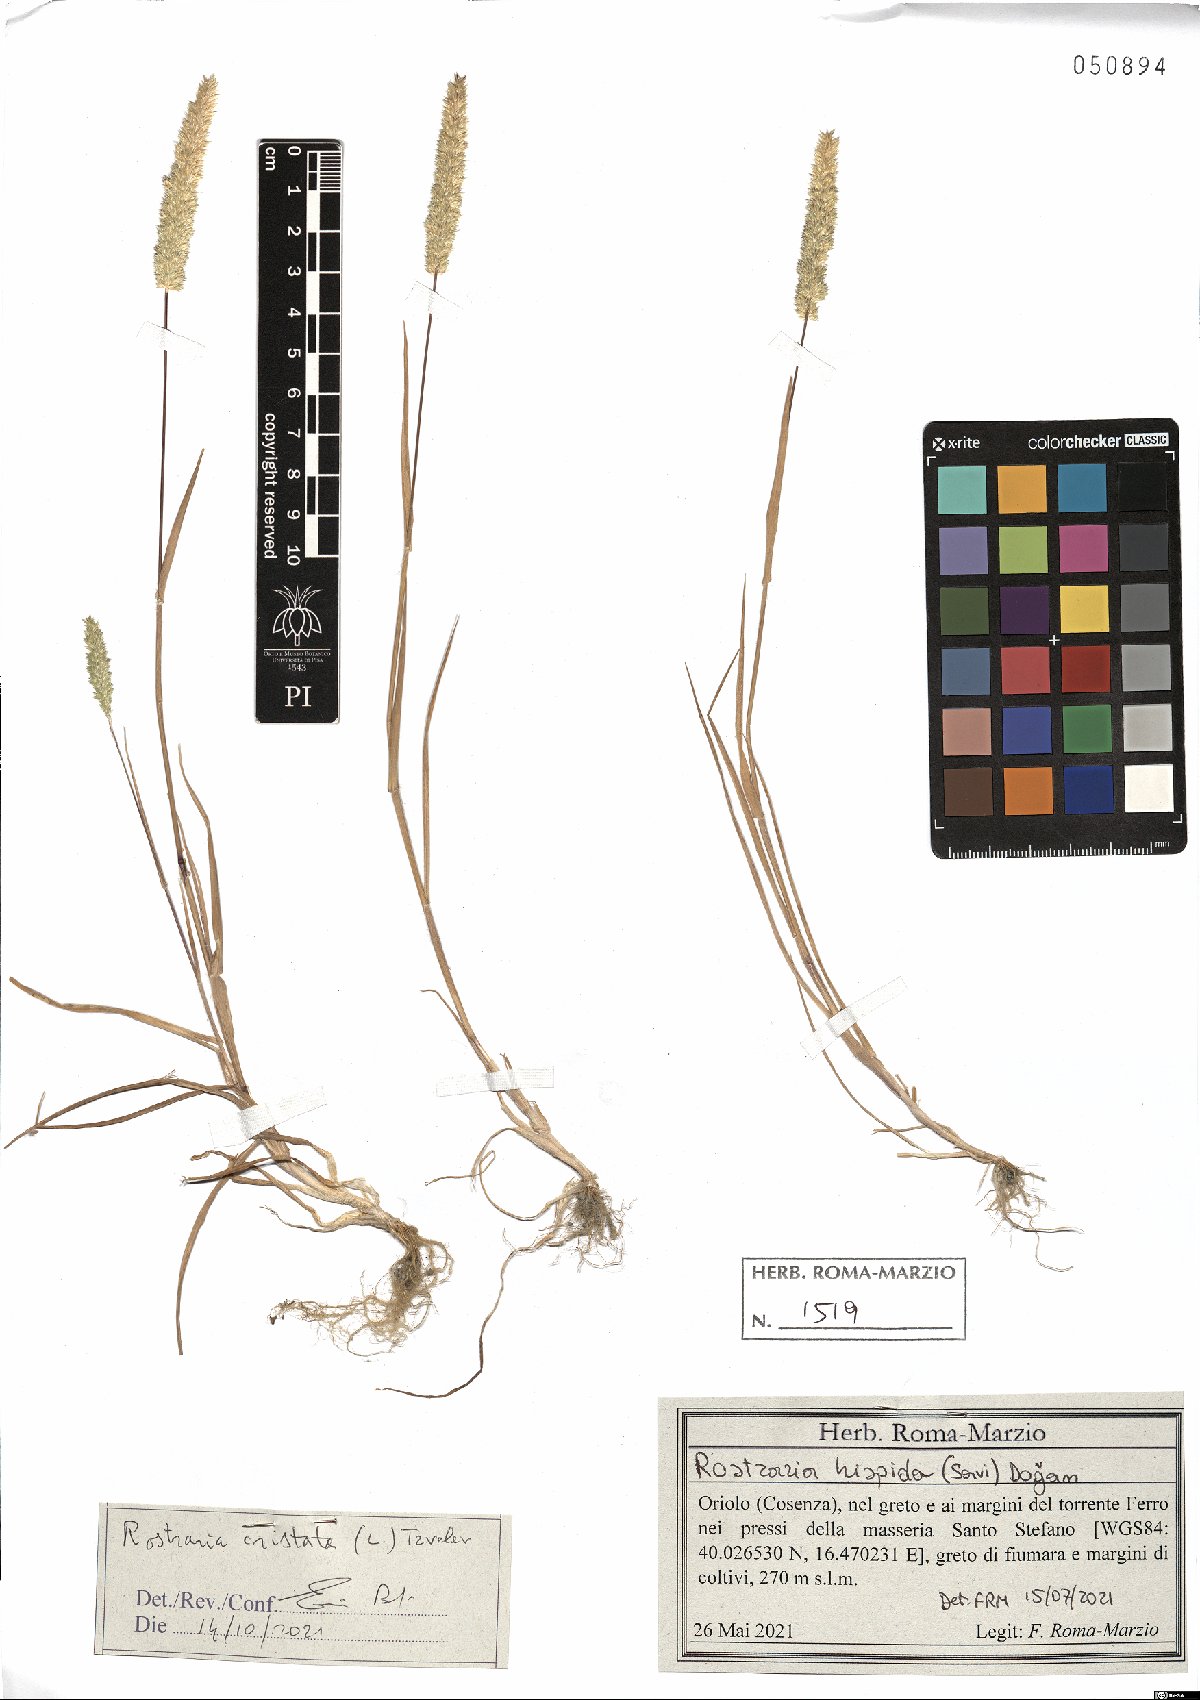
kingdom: Plantae
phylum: Tracheophyta
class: Liliopsida
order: Poales
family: Poaceae
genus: Rostraria
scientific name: Rostraria cristata
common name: Mediterranean hair-grass
